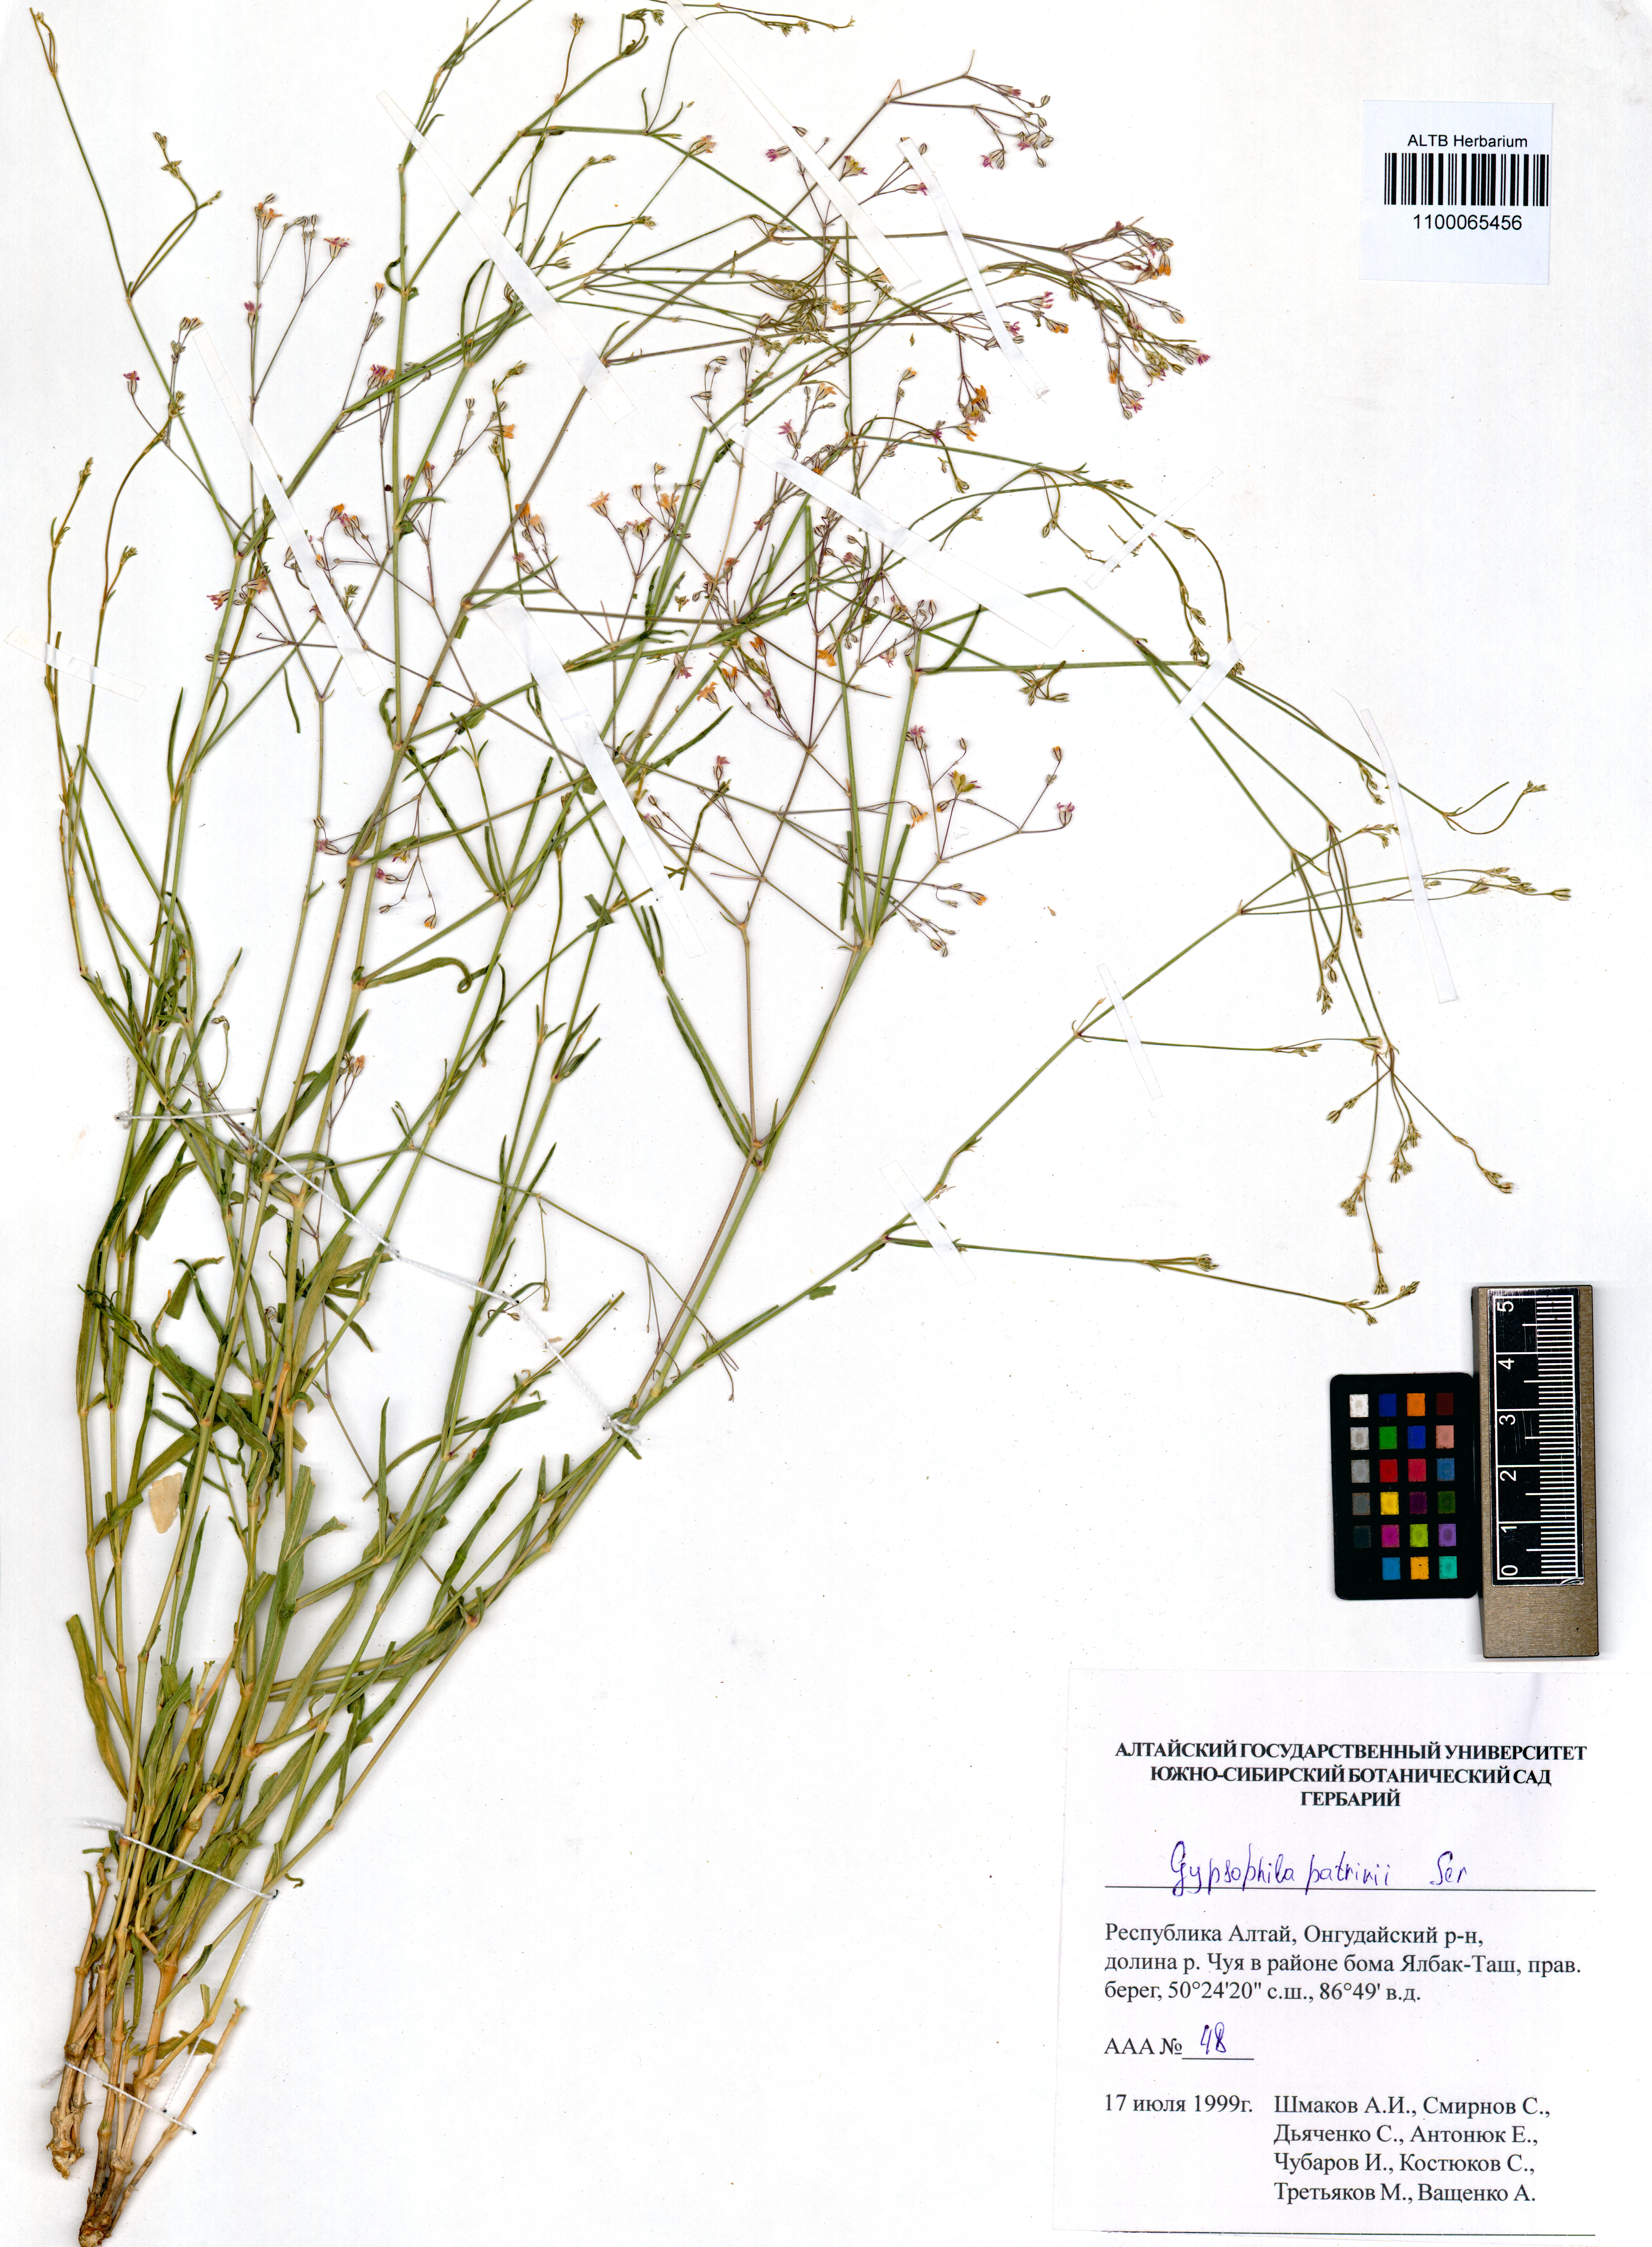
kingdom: Plantae
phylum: Tracheophyta
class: Magnoliopsida
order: Caryophyllales
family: Caryophyllaceae
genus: Gypsophila
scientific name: Gypsophila patrinii
